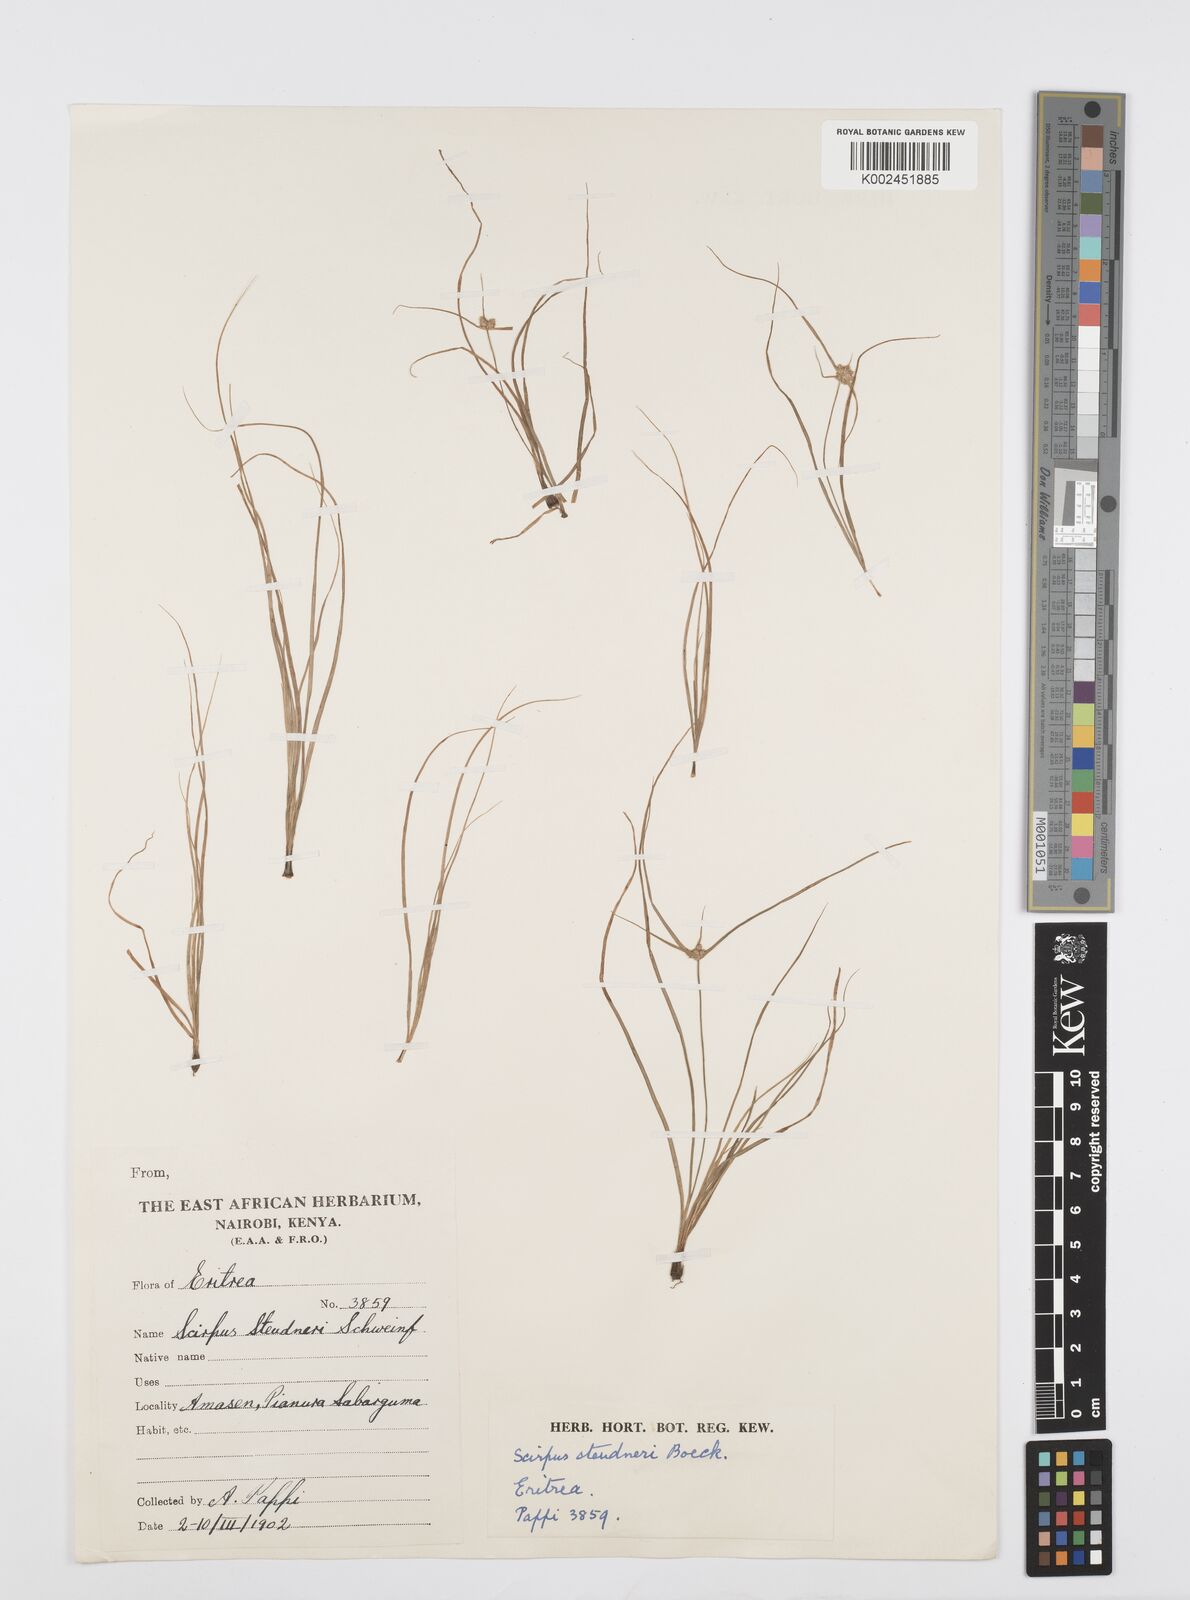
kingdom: Plantae
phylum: Tracheophyta
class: Liliopsida
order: Poales
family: Cyperaceae
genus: Cyperus
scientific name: Cyperus bulbosus
